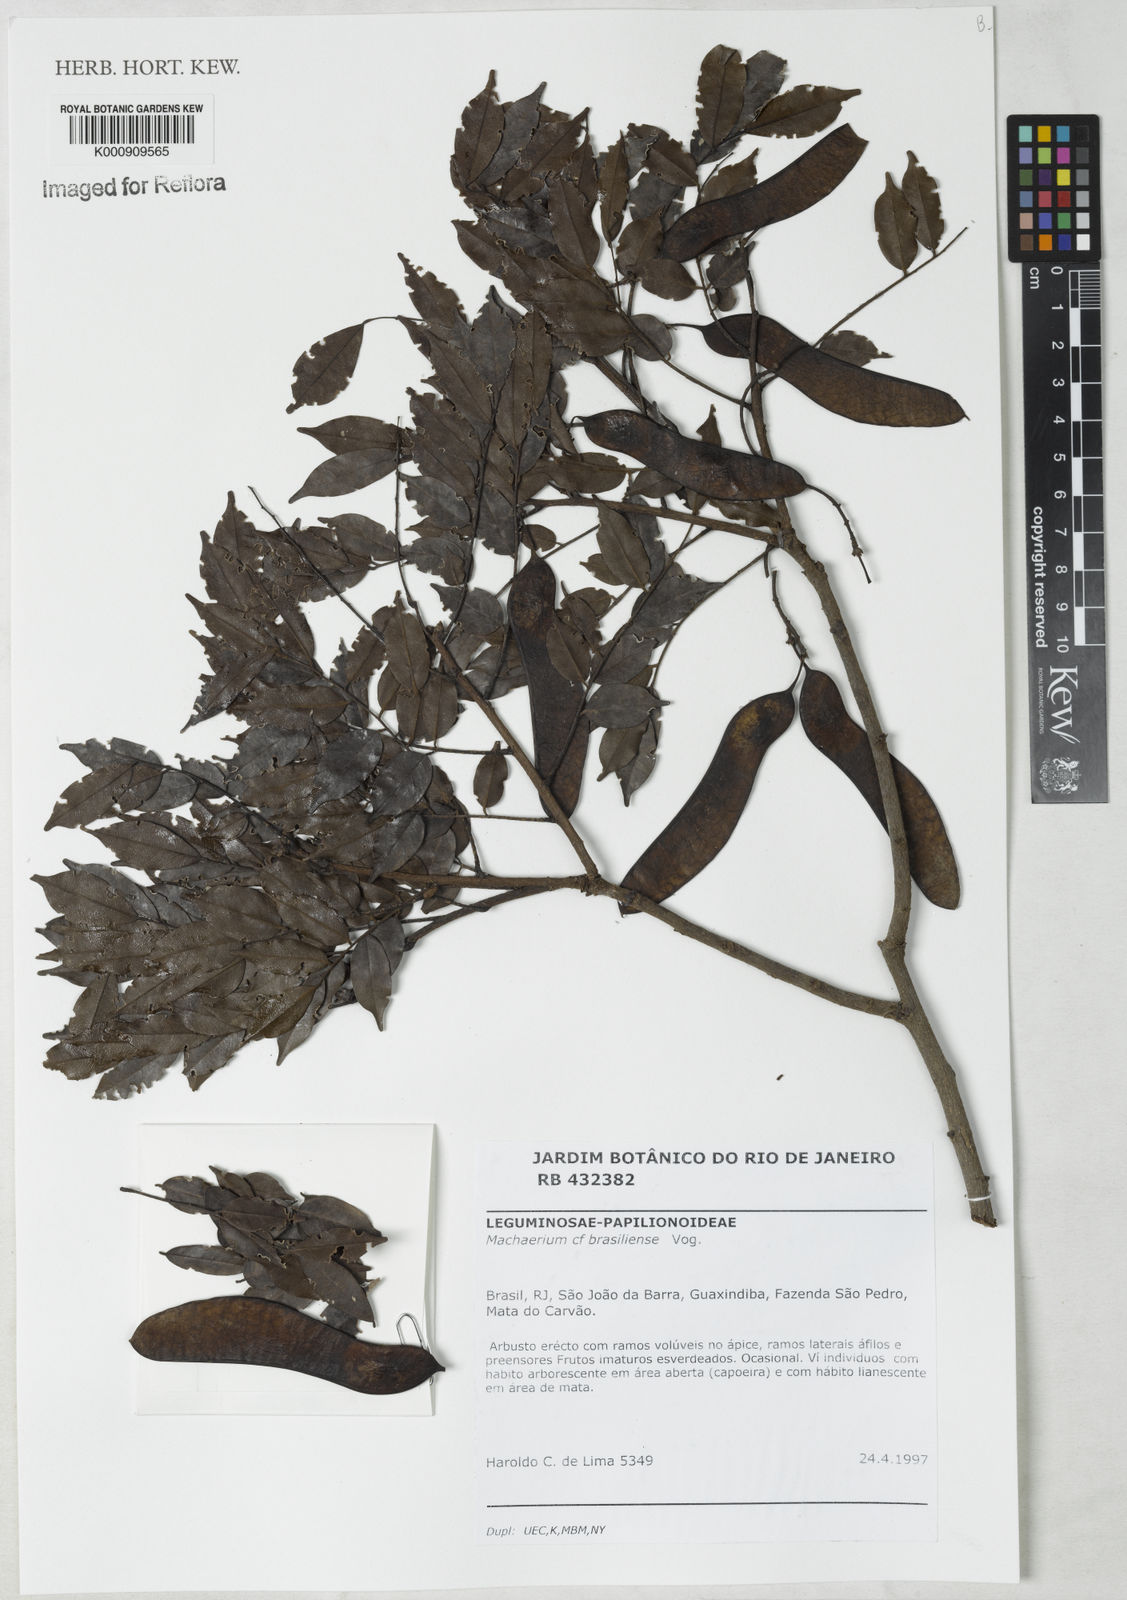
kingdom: Plantae
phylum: Tracheophyta
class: Magnoliopsida
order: Fabales
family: Fabaceae
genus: Machaerium
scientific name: Machaerium brasiliense
